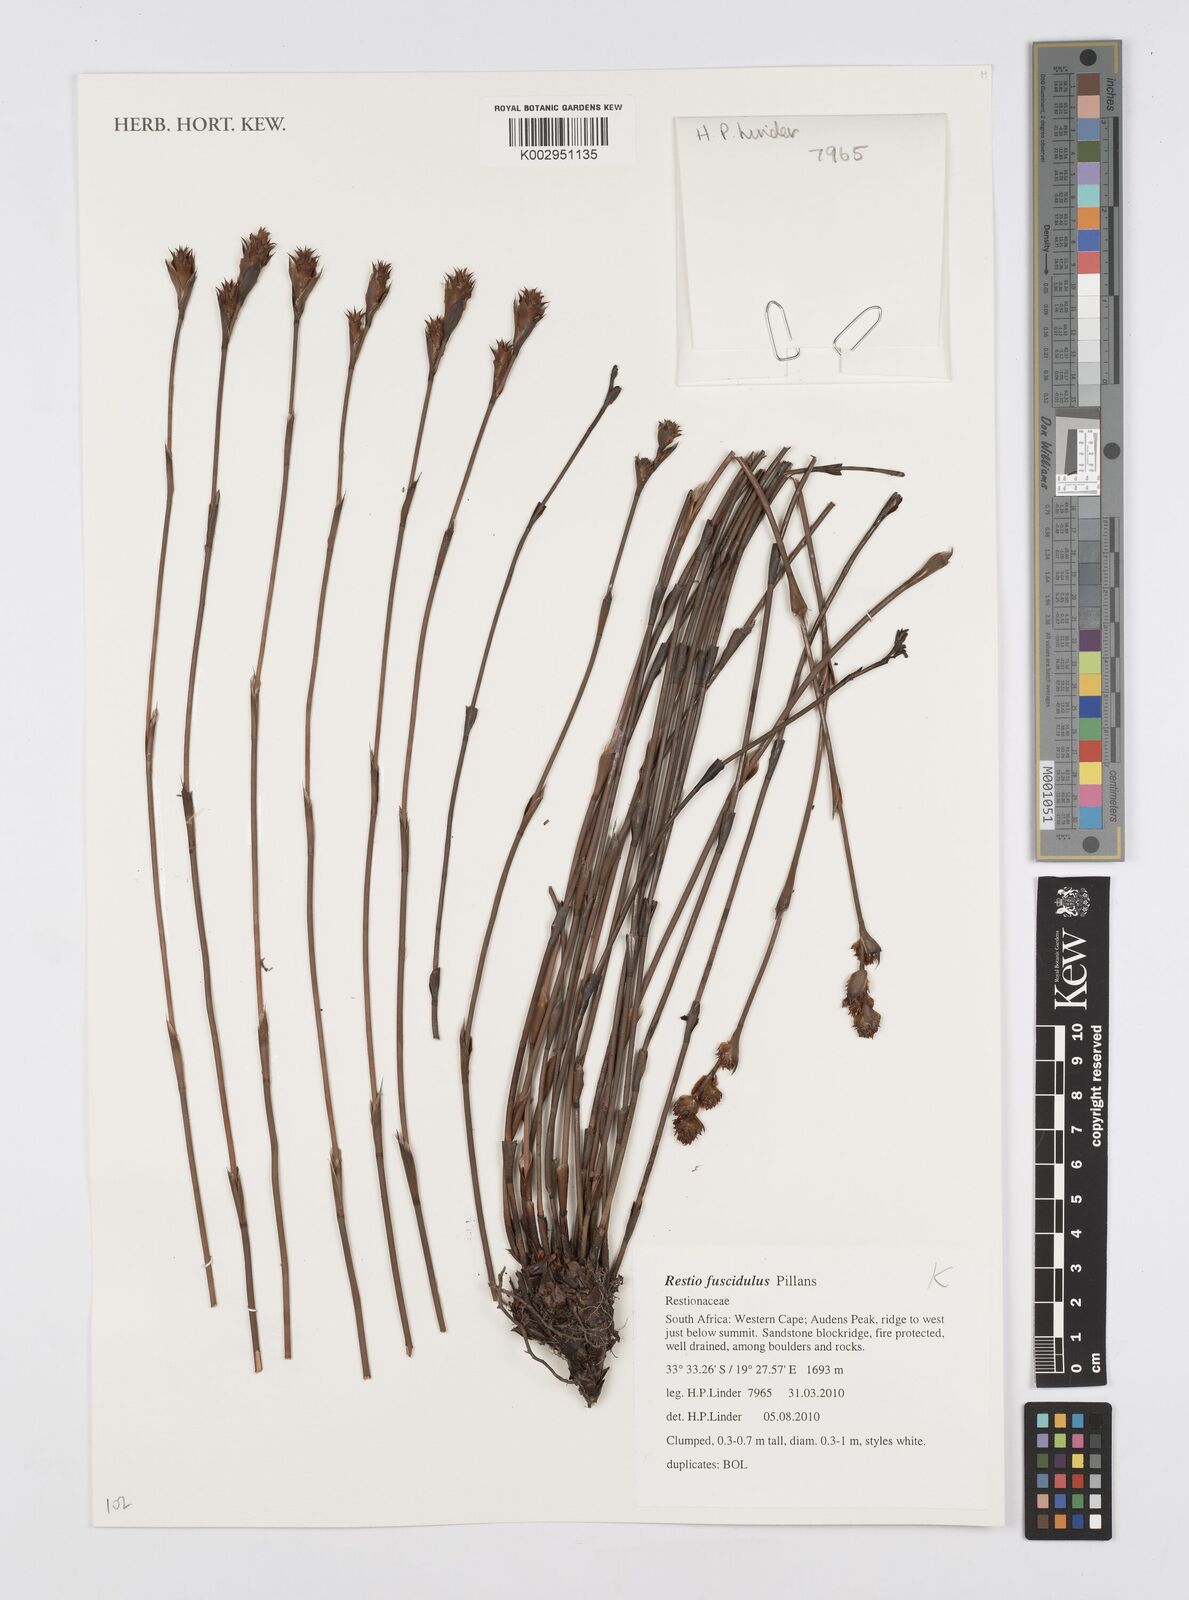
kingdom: Plantae
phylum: Tracheophyta
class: Liliopsida
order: Poales
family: Restionaceae
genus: Restio
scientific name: Restio fuscidulus
